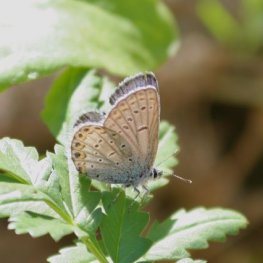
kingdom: Animalia
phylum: Arthropoda
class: Insecta
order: Lepidoptera
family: Lycaenidae
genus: Lycaeides
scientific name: Lycaeides idas
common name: Northern Blue
